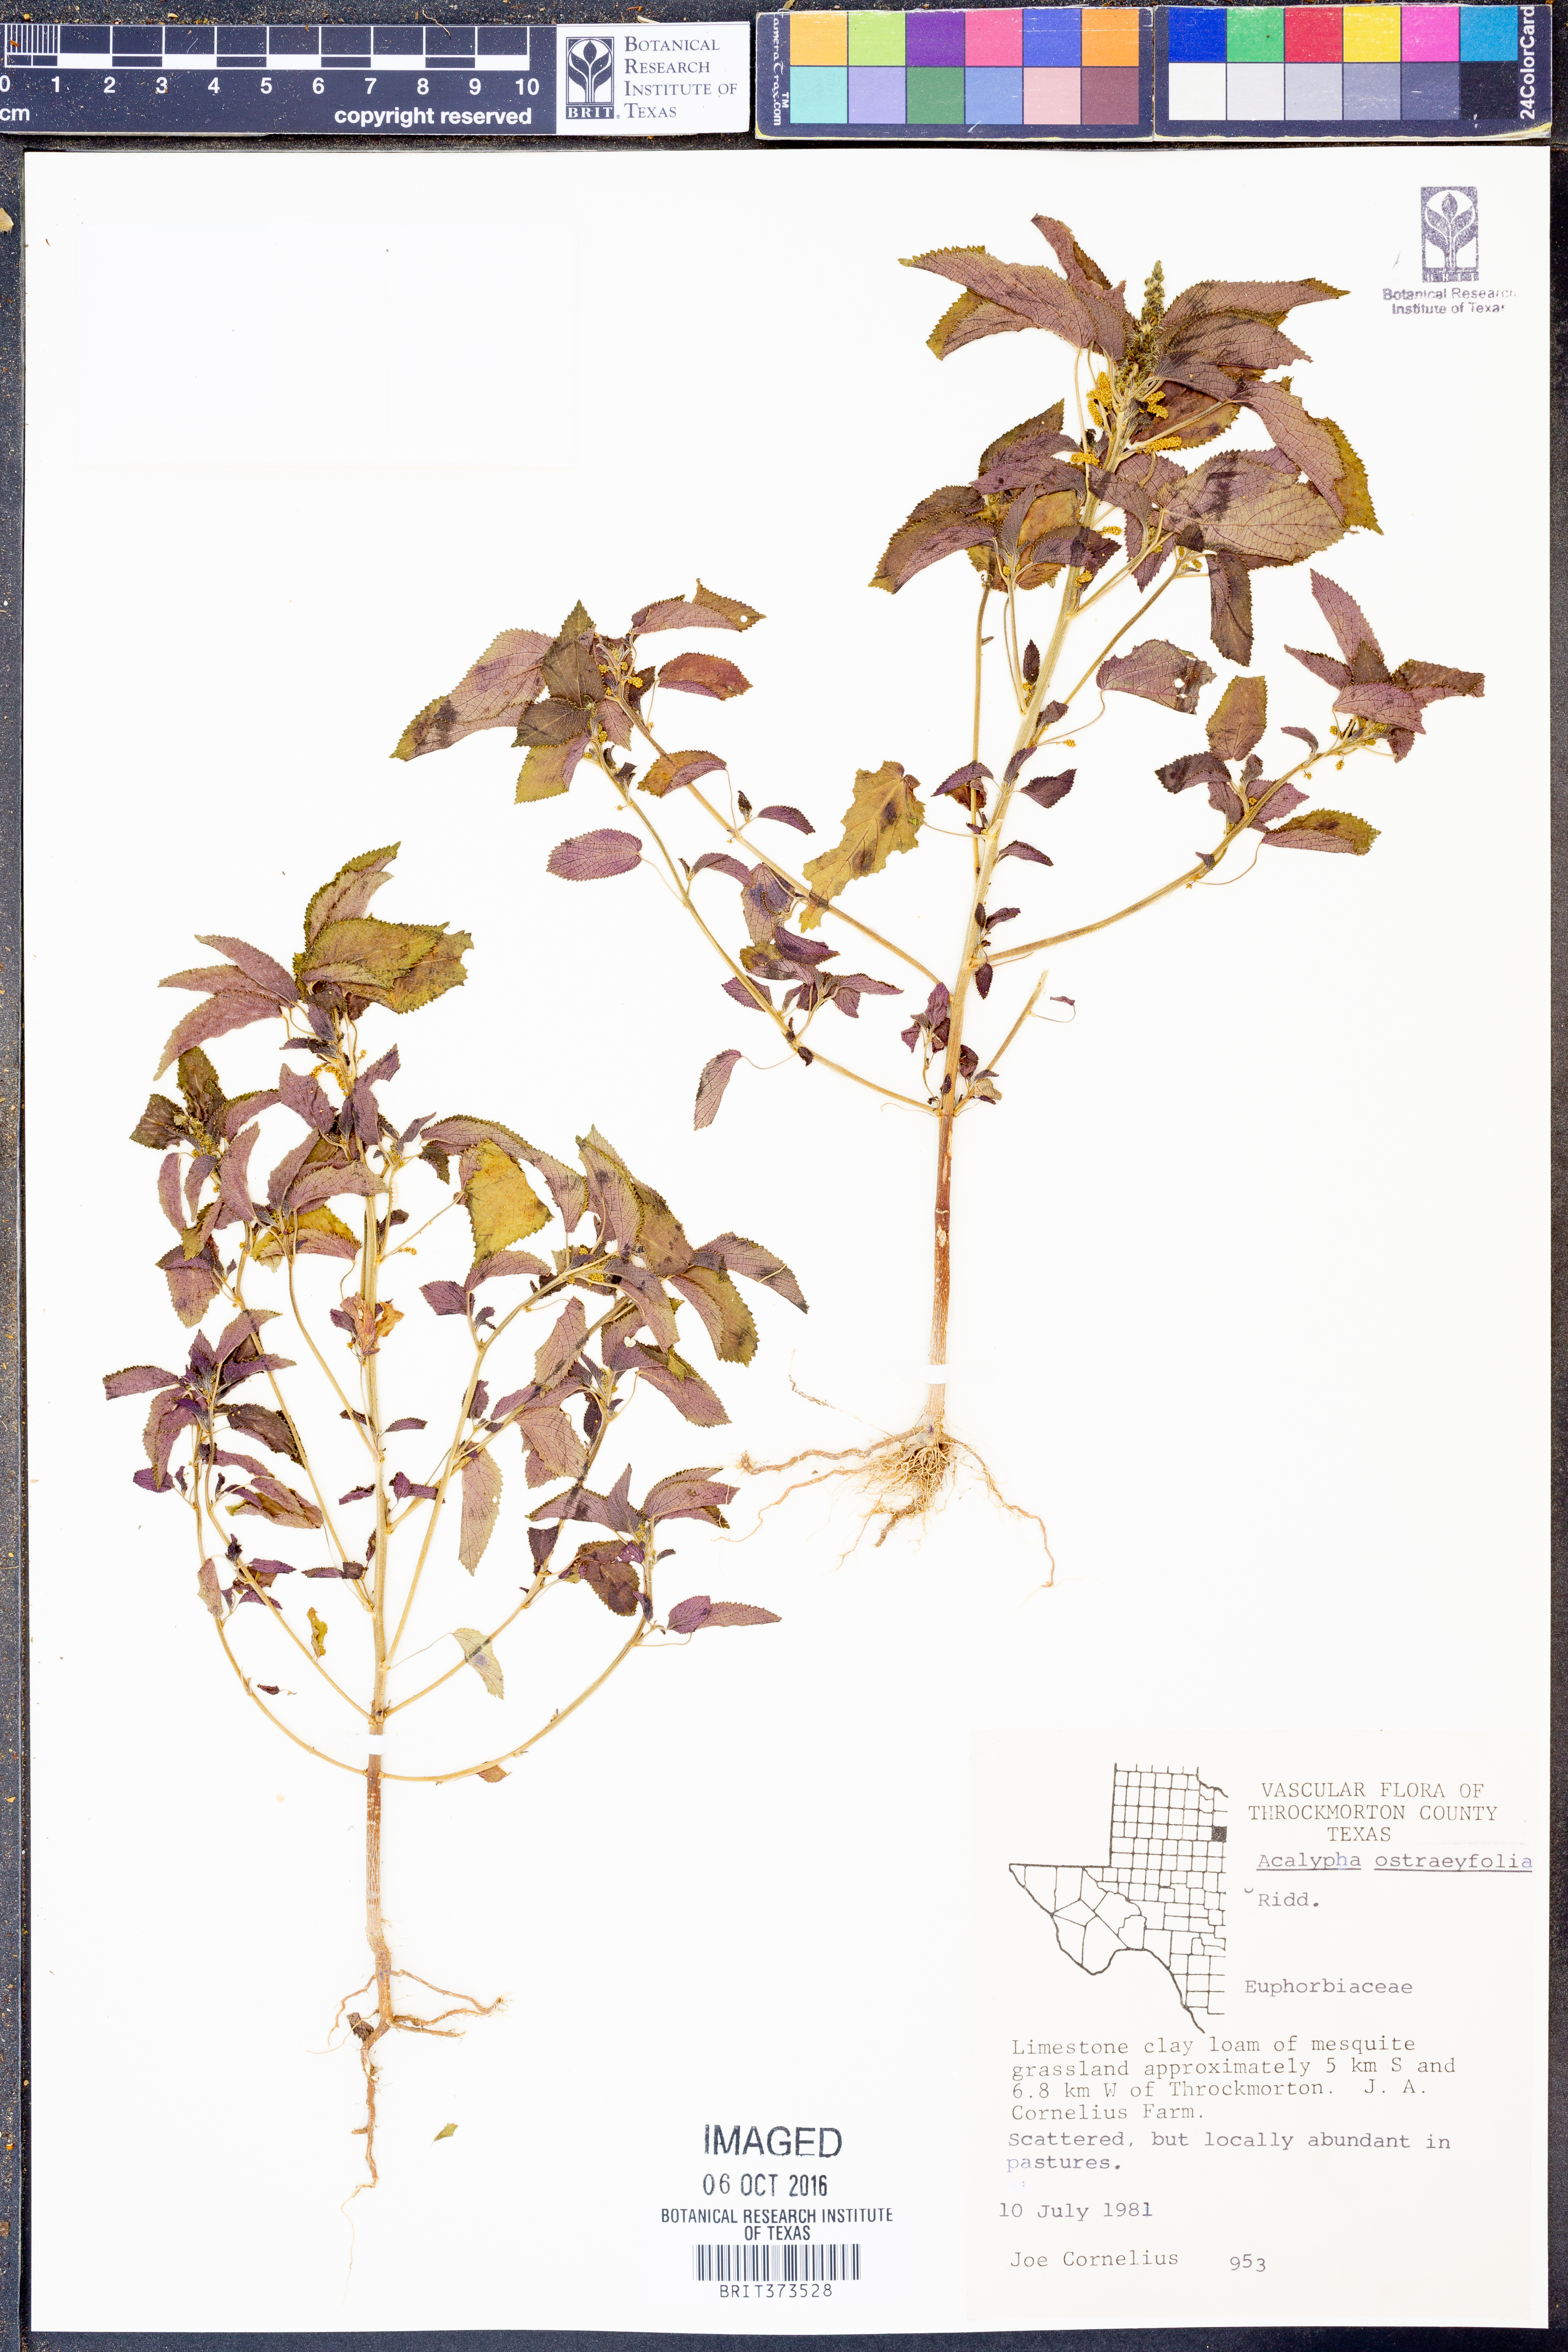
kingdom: Plantae
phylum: Tracheophyta
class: Magnoliopsida
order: Malpighiales
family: Euphorbiaceae
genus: Acalypha
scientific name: Acalypha ostryifolia
